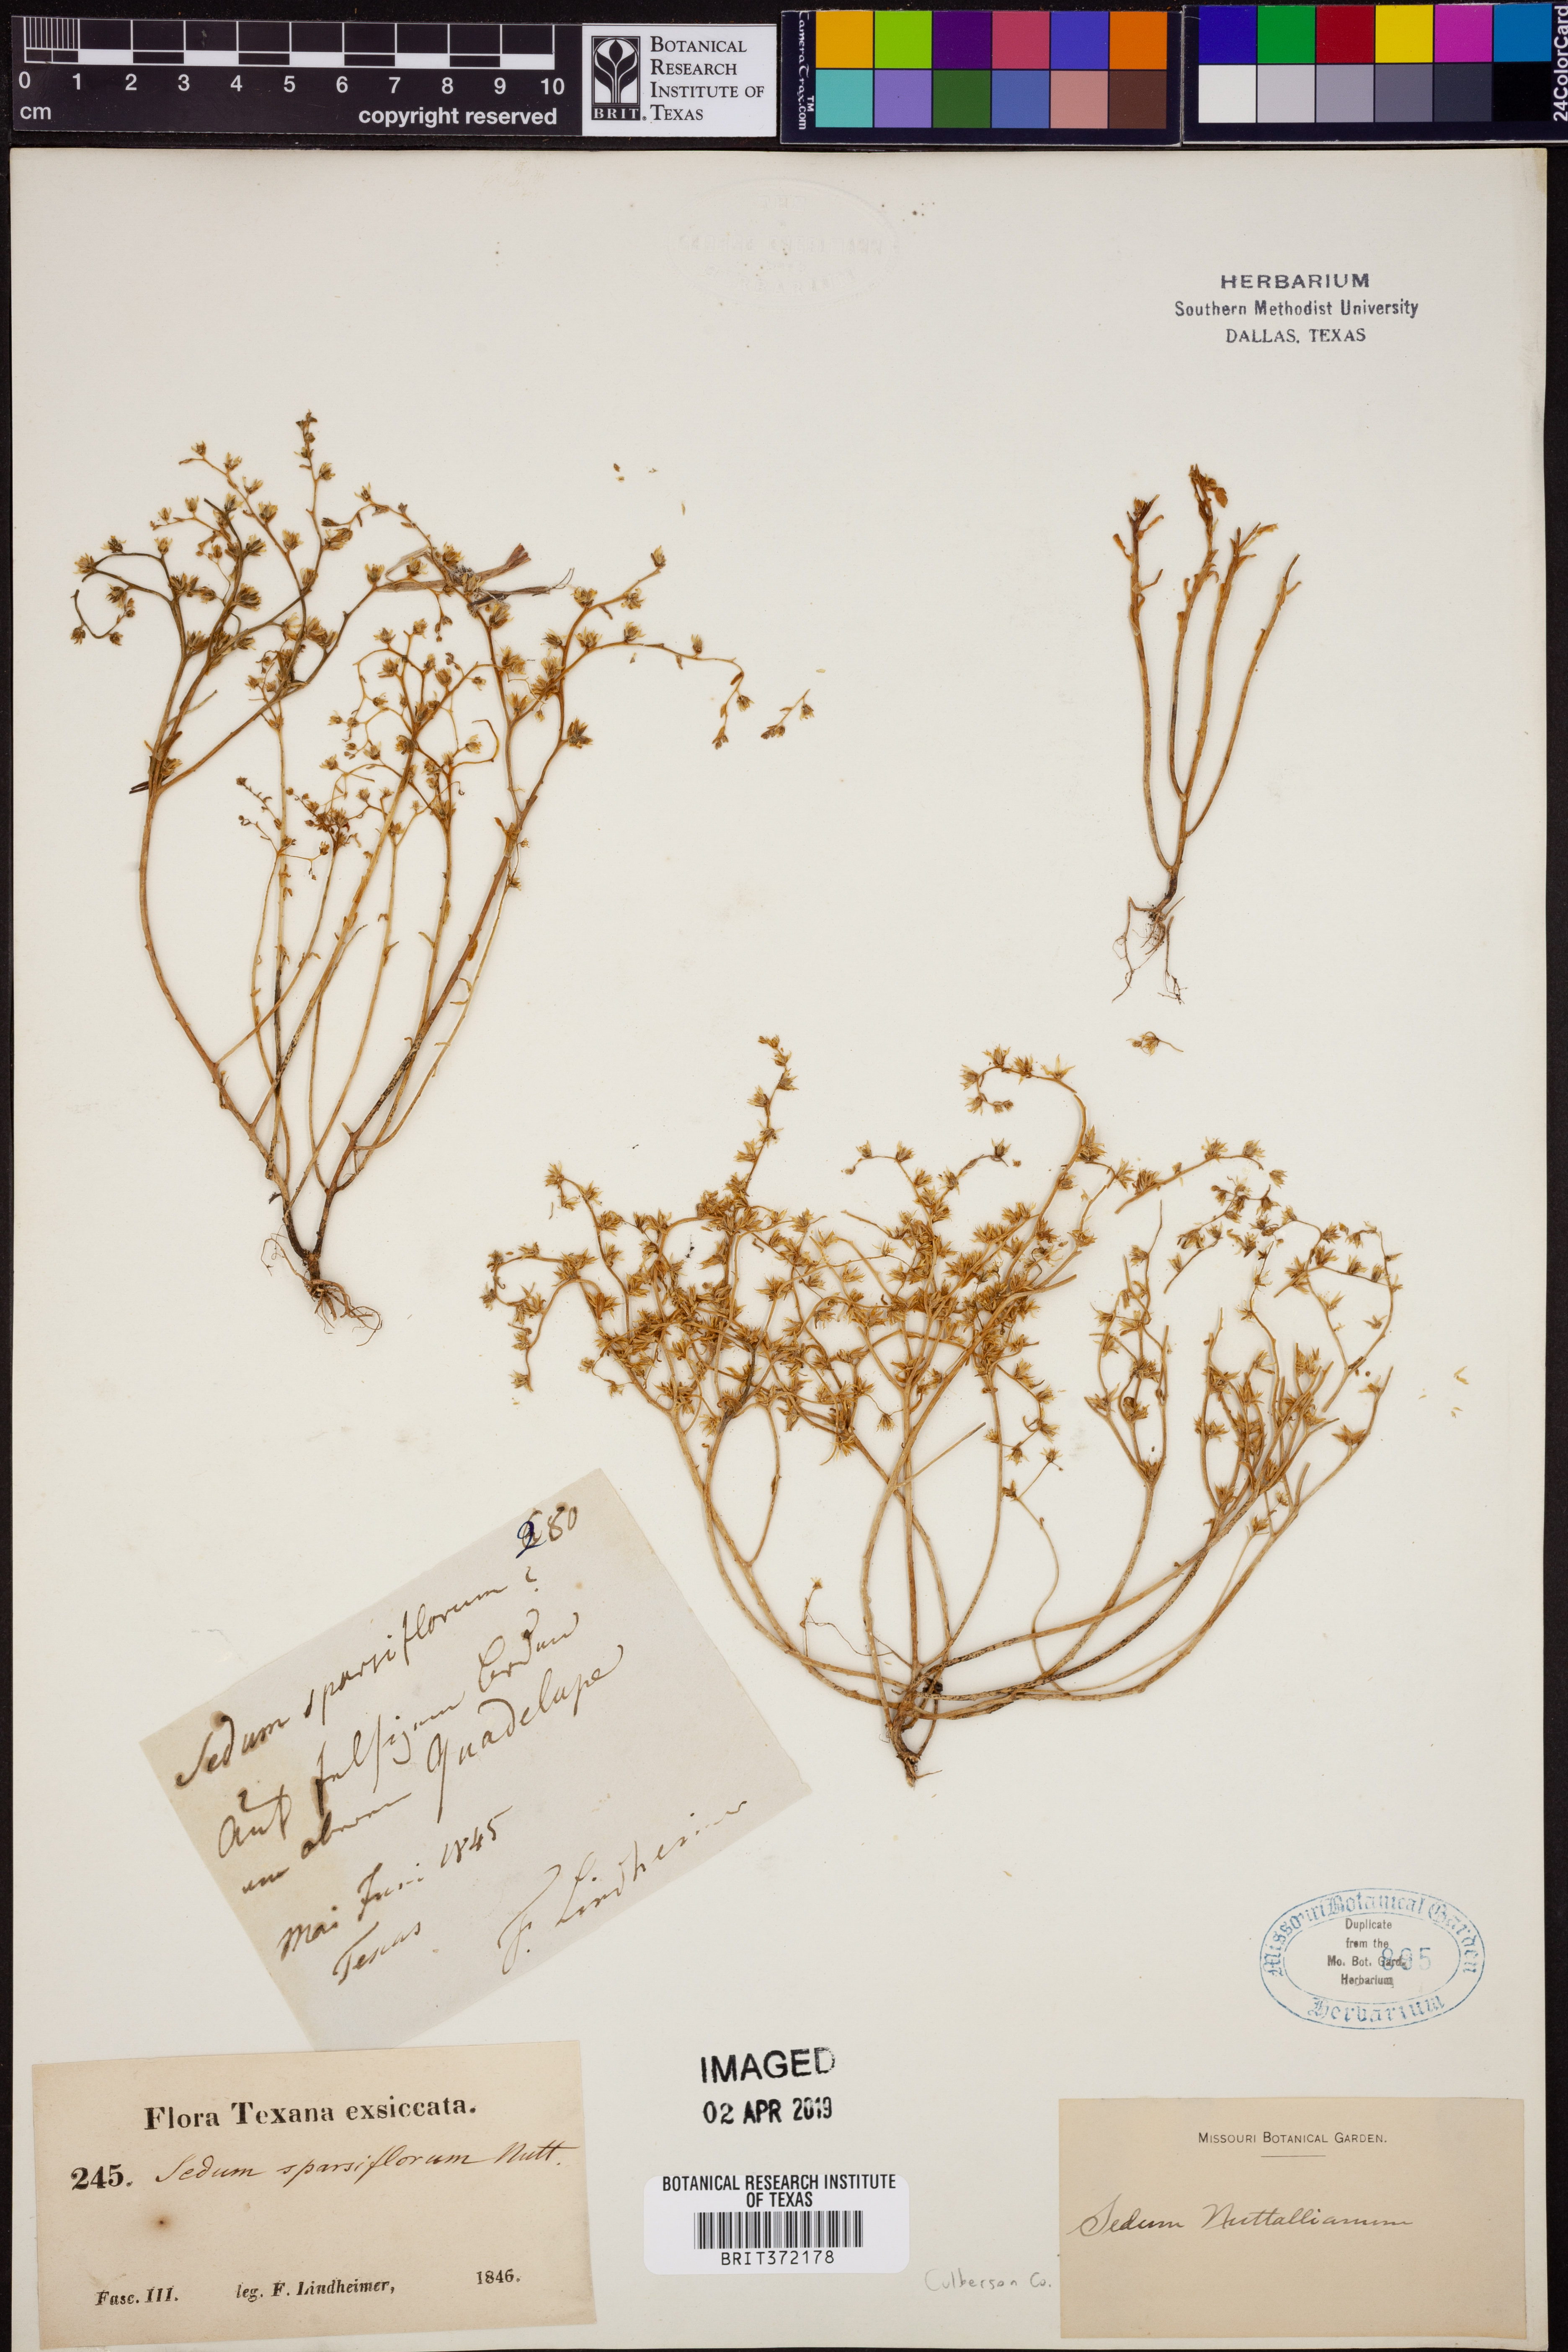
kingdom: Plantae
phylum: Tracheophyta
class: Magnoliopsida
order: Saxifragales
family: Crassulaceae
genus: Sedum
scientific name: Sedum nuttallii
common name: Yellow stonecrop
